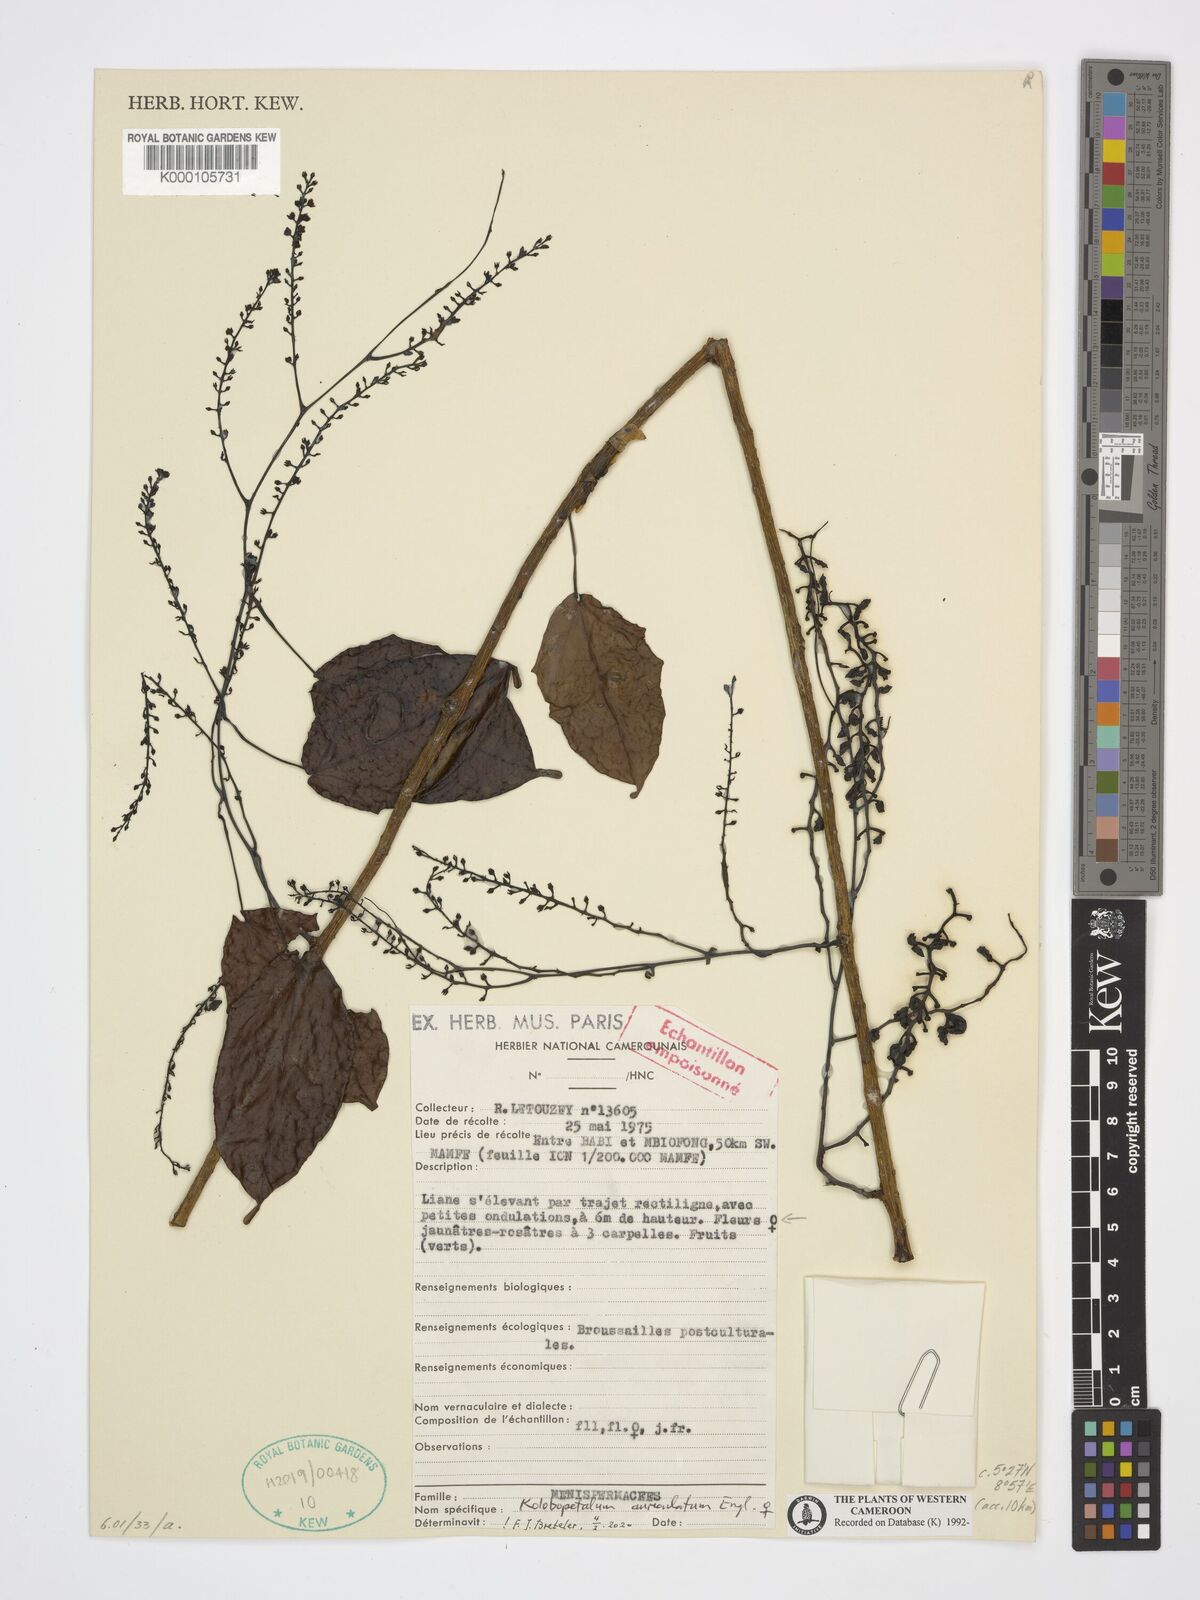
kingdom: Plantae
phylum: Tracheophyta
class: Magnoliopsida
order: Ranunculales
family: Menispermaceae
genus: Kolobopetalum
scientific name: Kolobopetalum auriculatum
